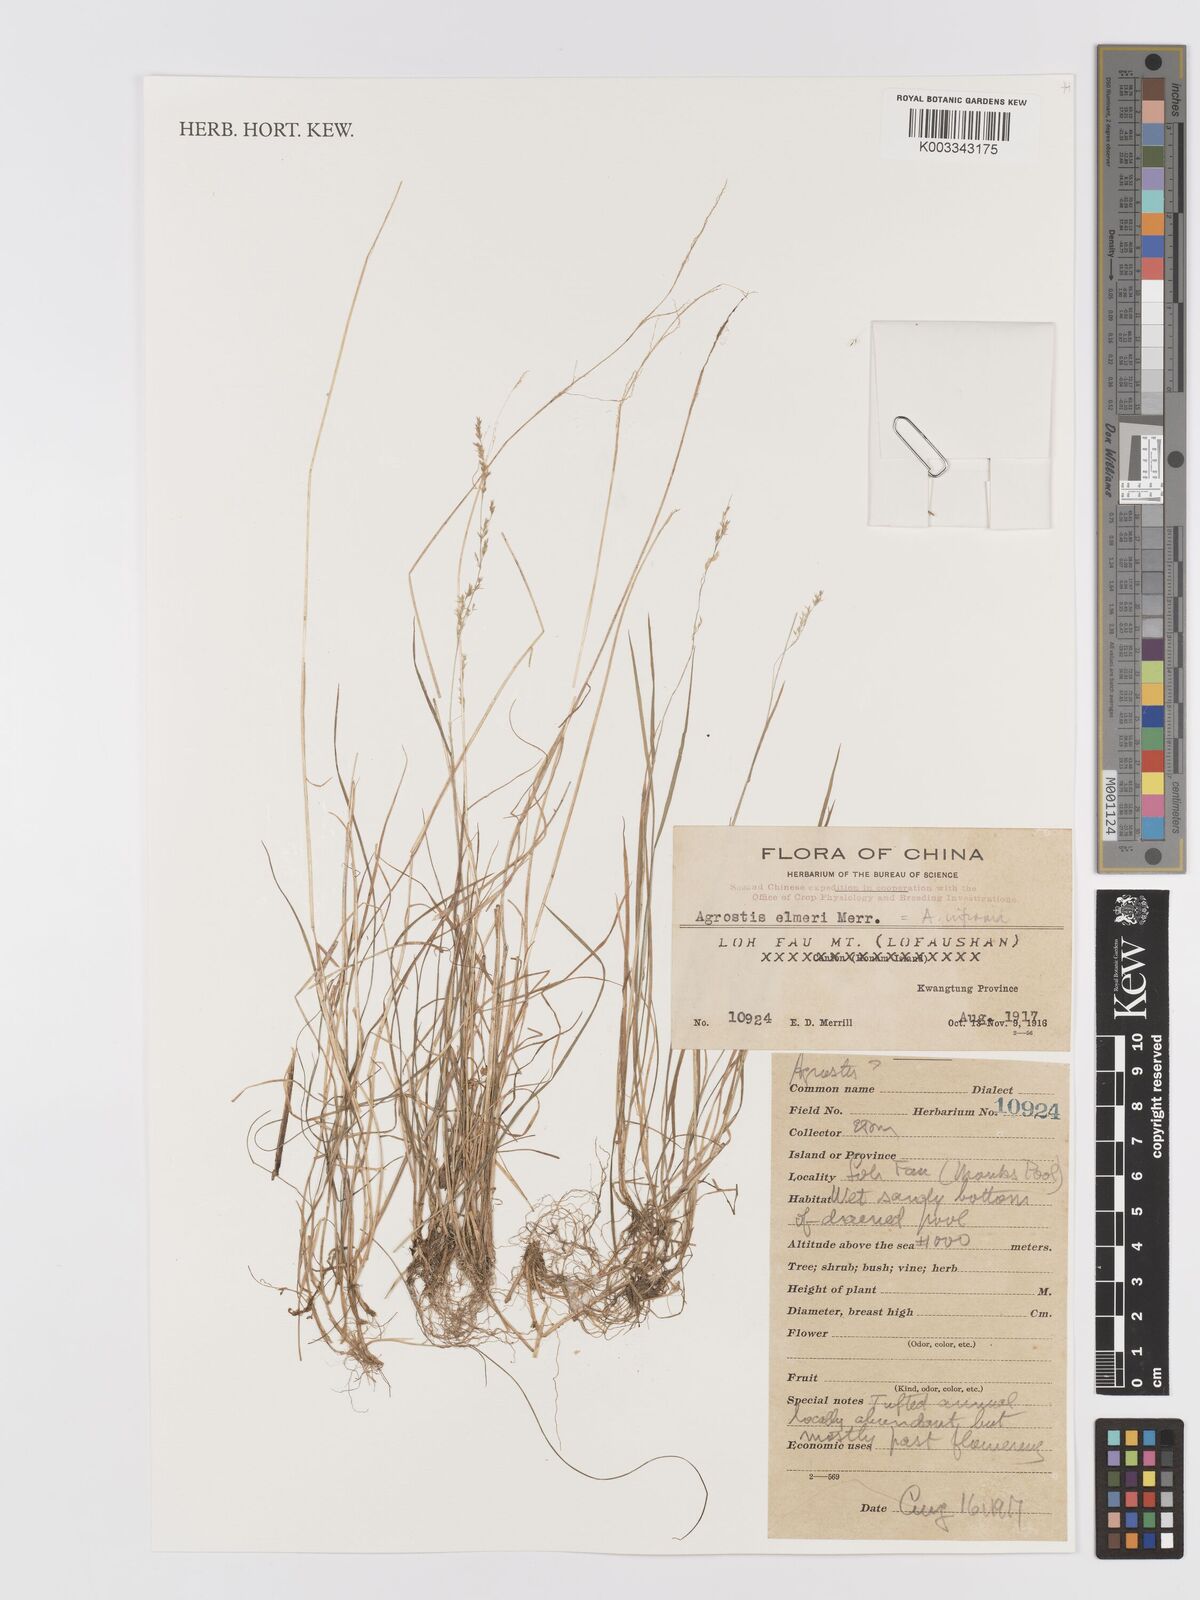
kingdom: Plantae
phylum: Tracheophyta
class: Liliopsida
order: Poales
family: Poaceae
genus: Agrostis
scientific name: Agrostis infirma
